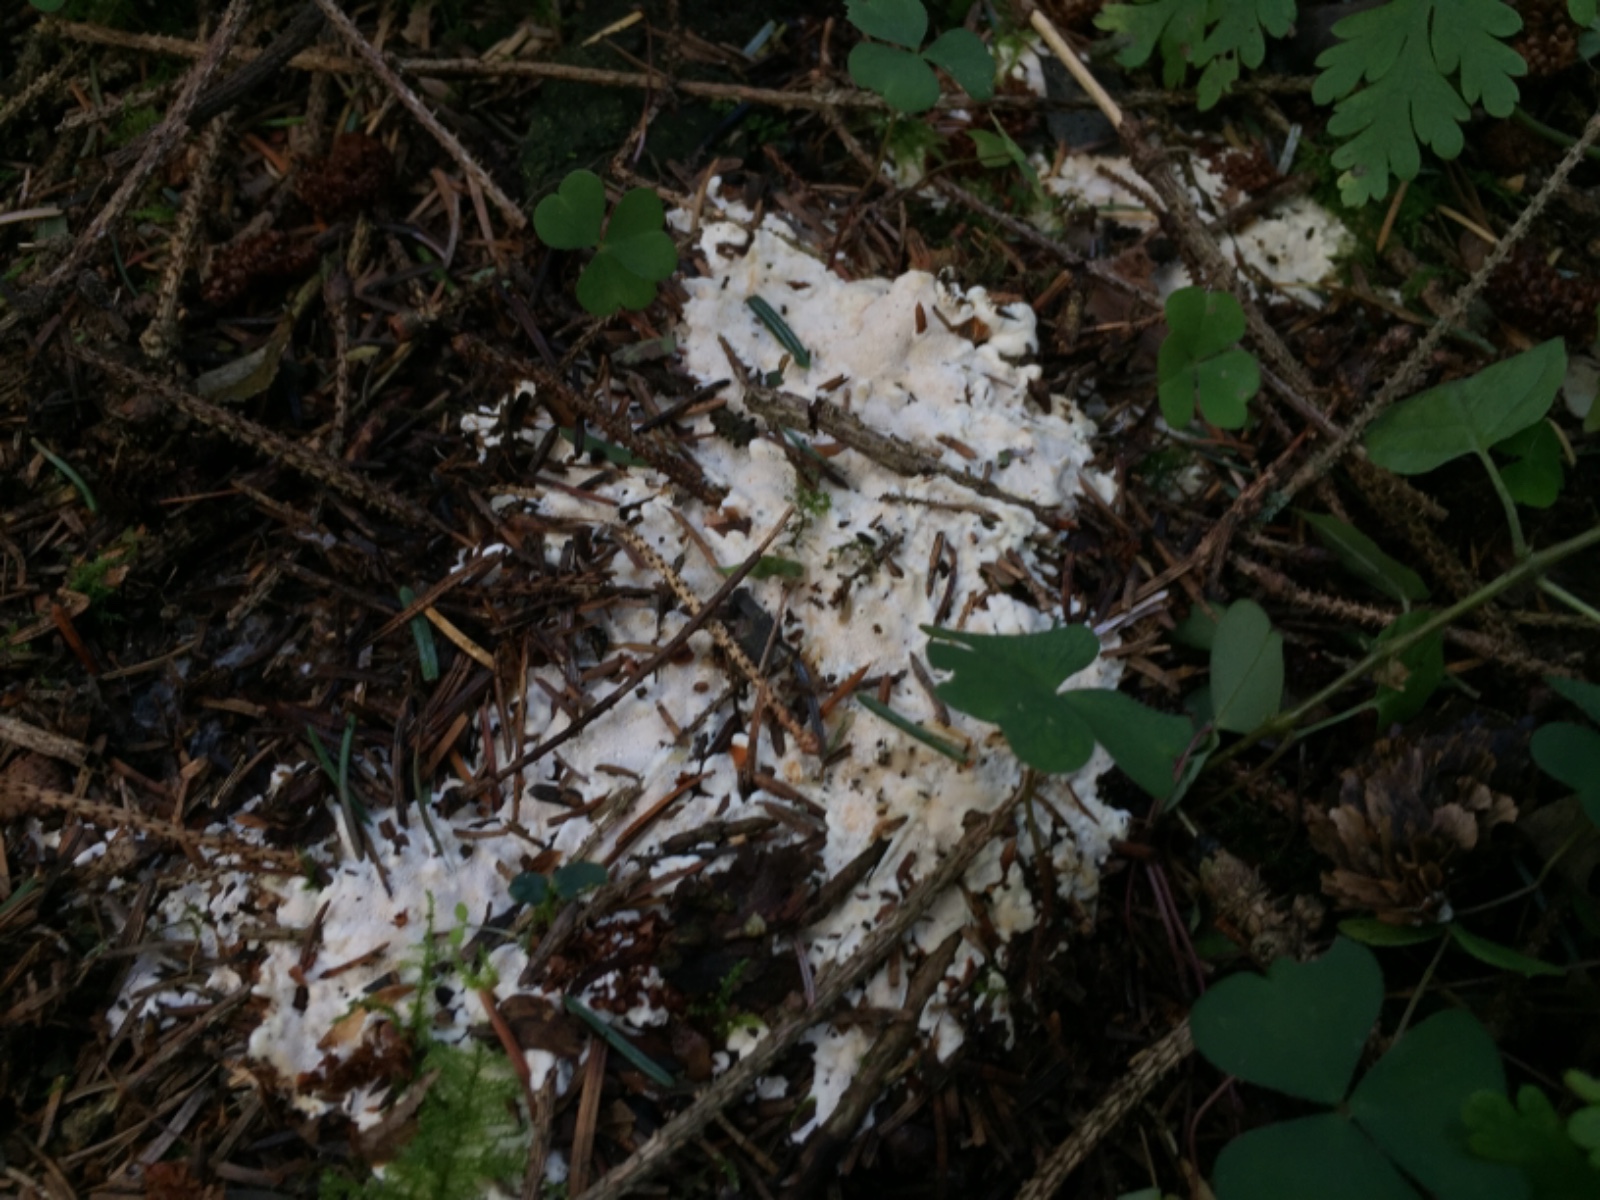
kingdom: Fungi
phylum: Basidiomycota
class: Agaricomycetes
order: Russulales
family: Bondarzewiaceae
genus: Heterobasidion
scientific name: Heterobasidion
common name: rodfordærver
